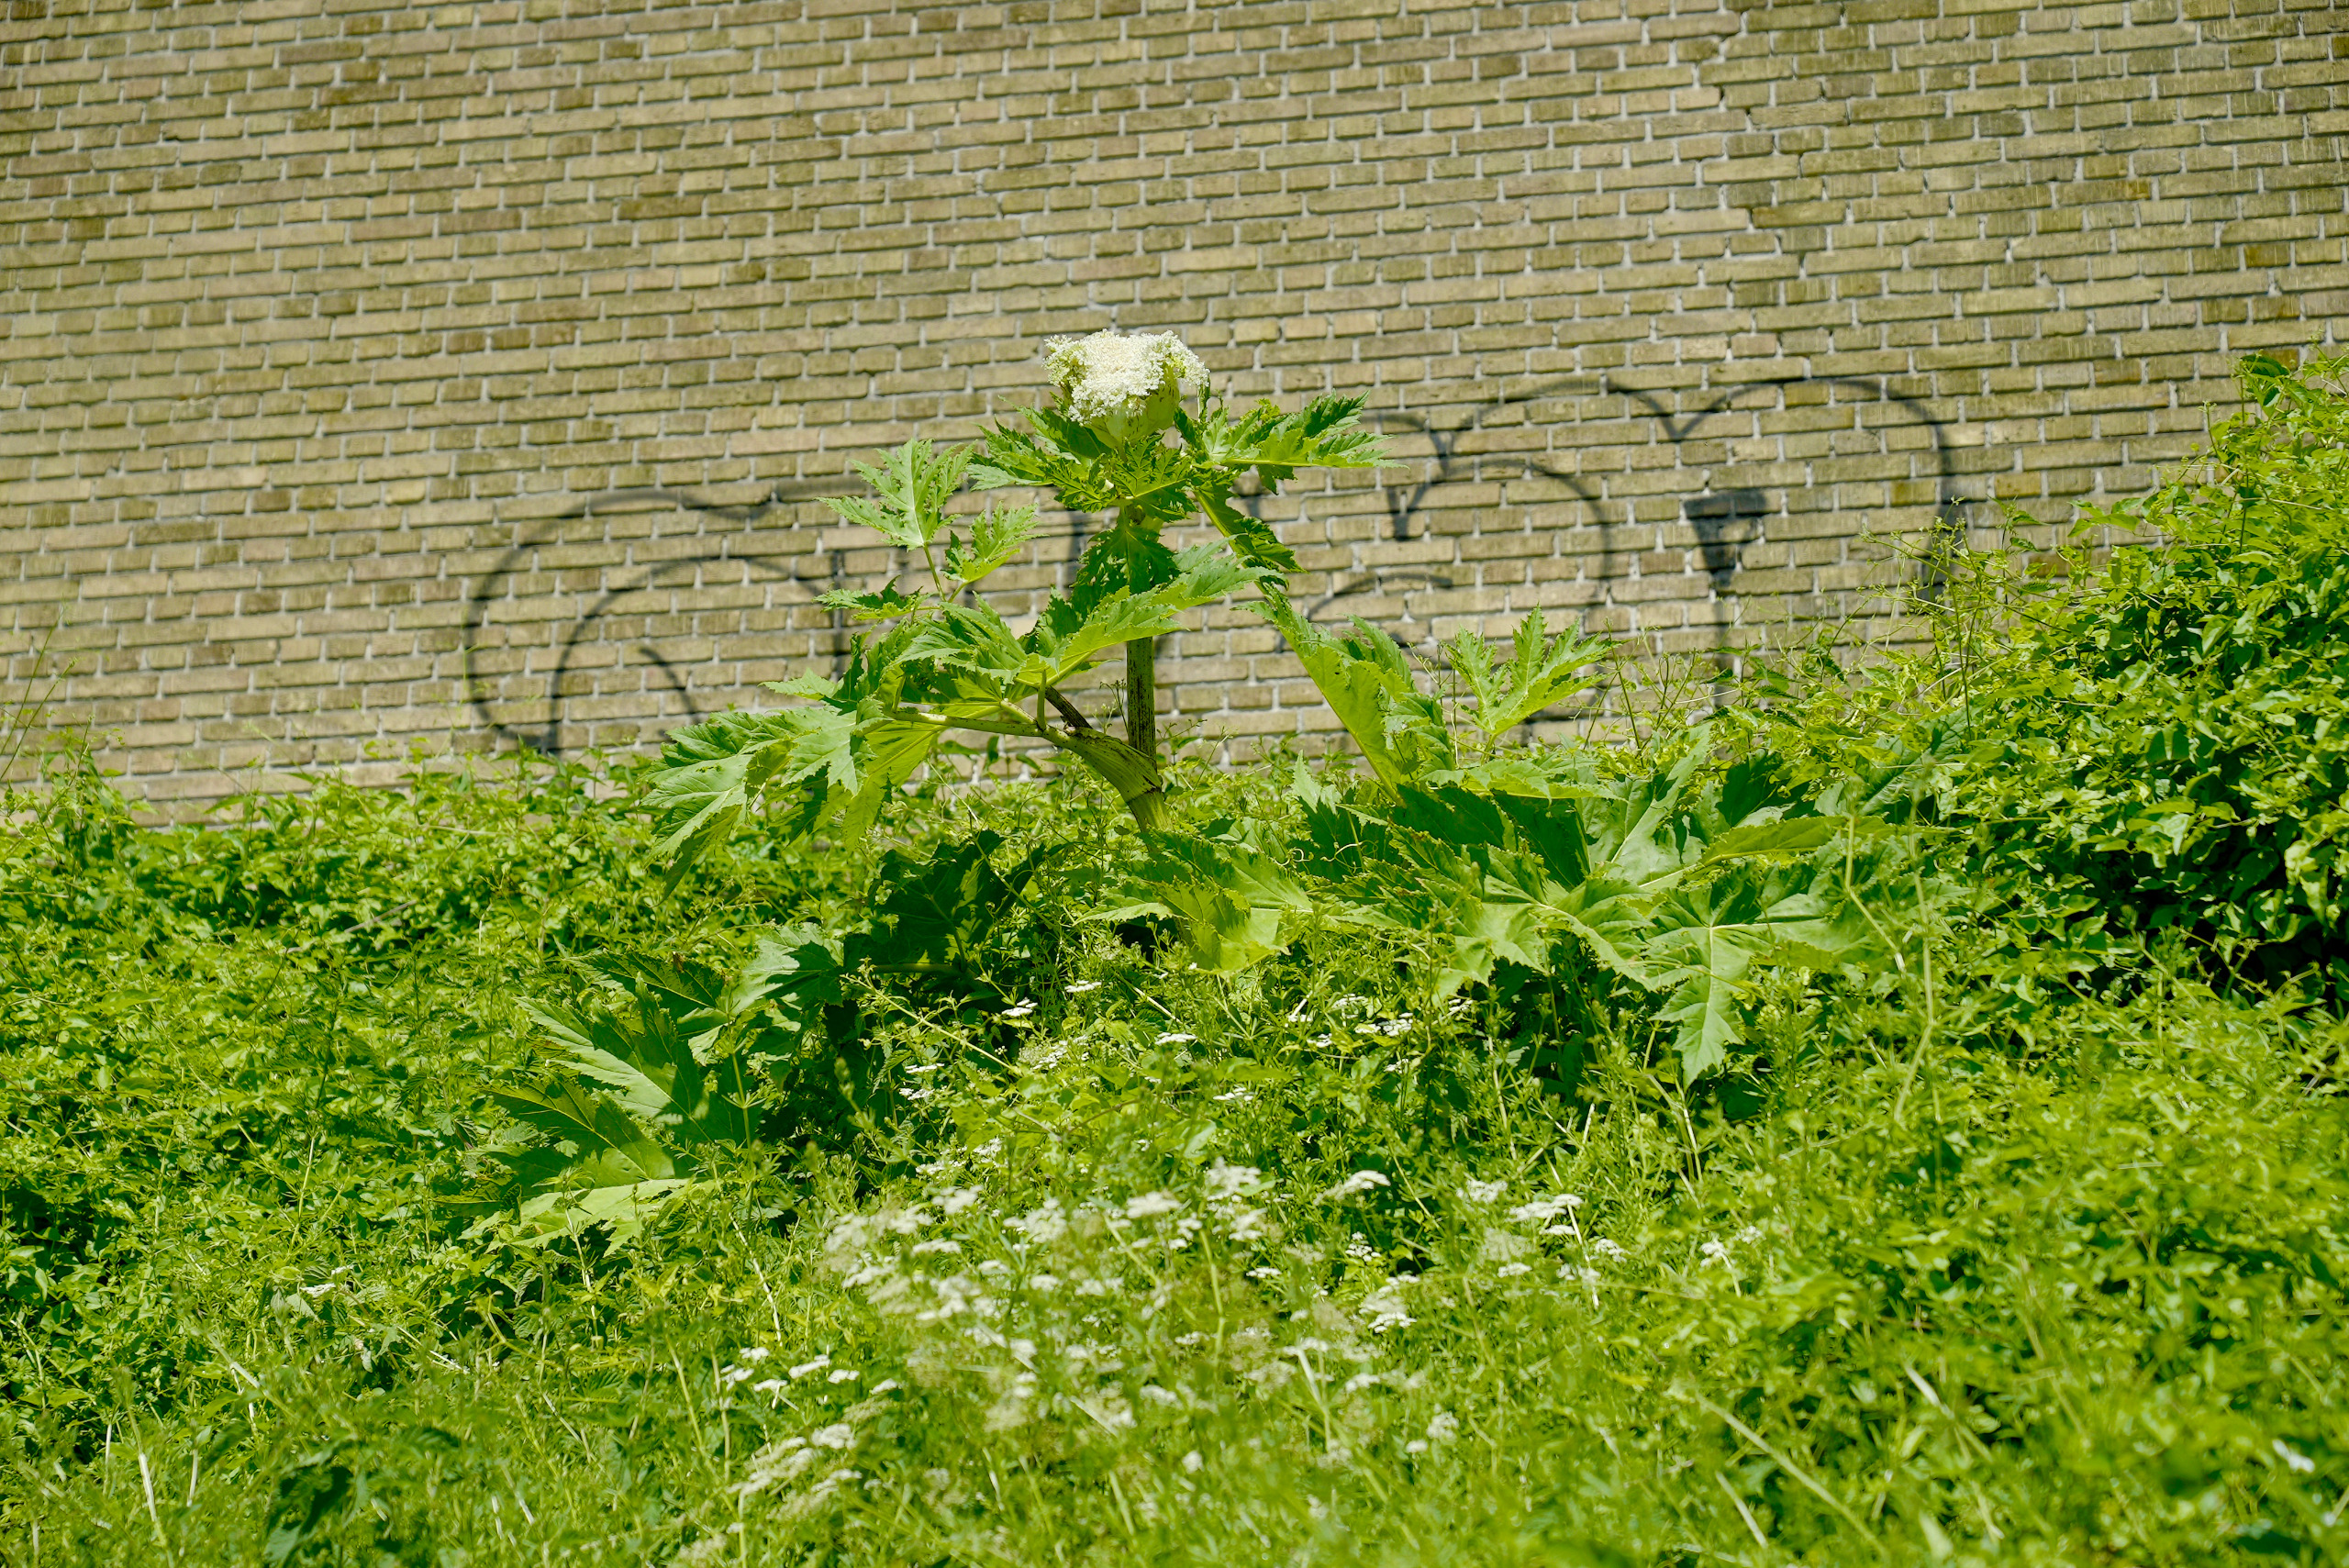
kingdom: Plantae
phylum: Tracheophyta
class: Magnoliopsida
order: Apiales
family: Apiaceae
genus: Heracleum
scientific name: Heracleum mantegazzianum
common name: Kæmpe-bjørneklo
